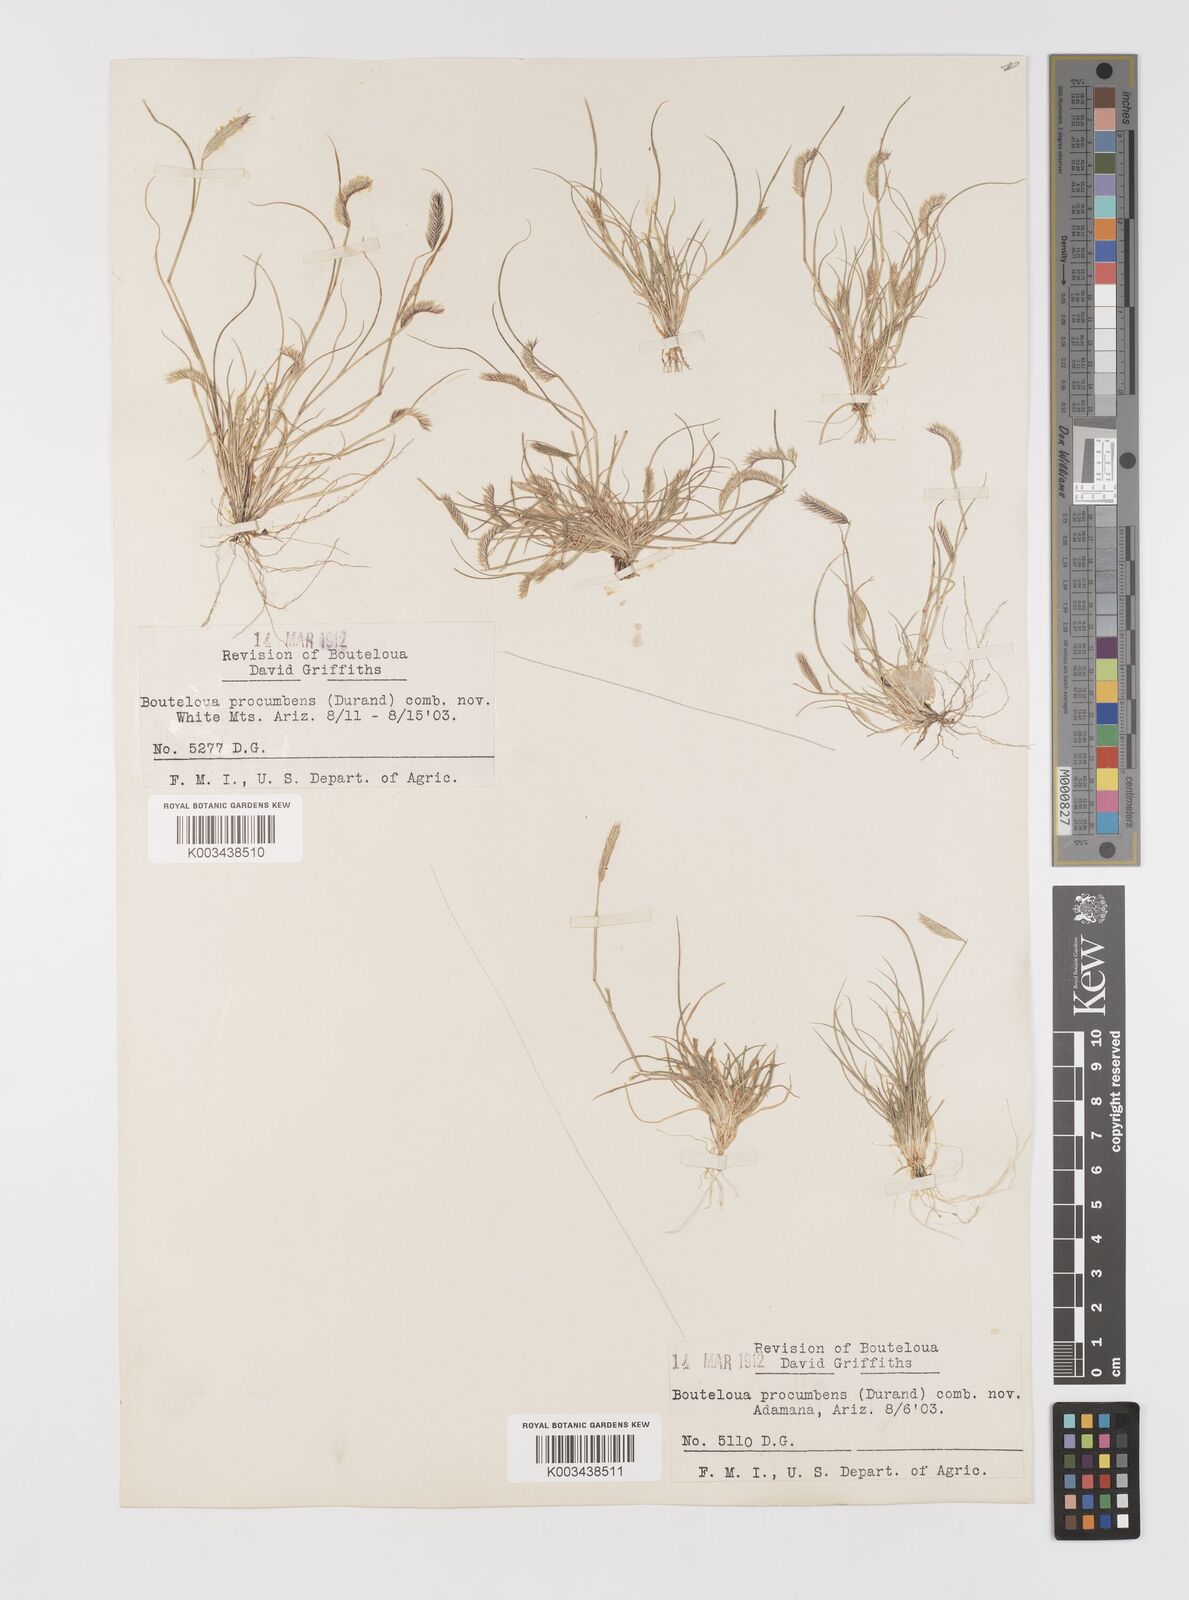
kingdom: Plantae
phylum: Tracheophyta
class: Liliopsida
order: Poales
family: Poaceae
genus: Bouteloua
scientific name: Bouteloua simplex
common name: Mat grama
